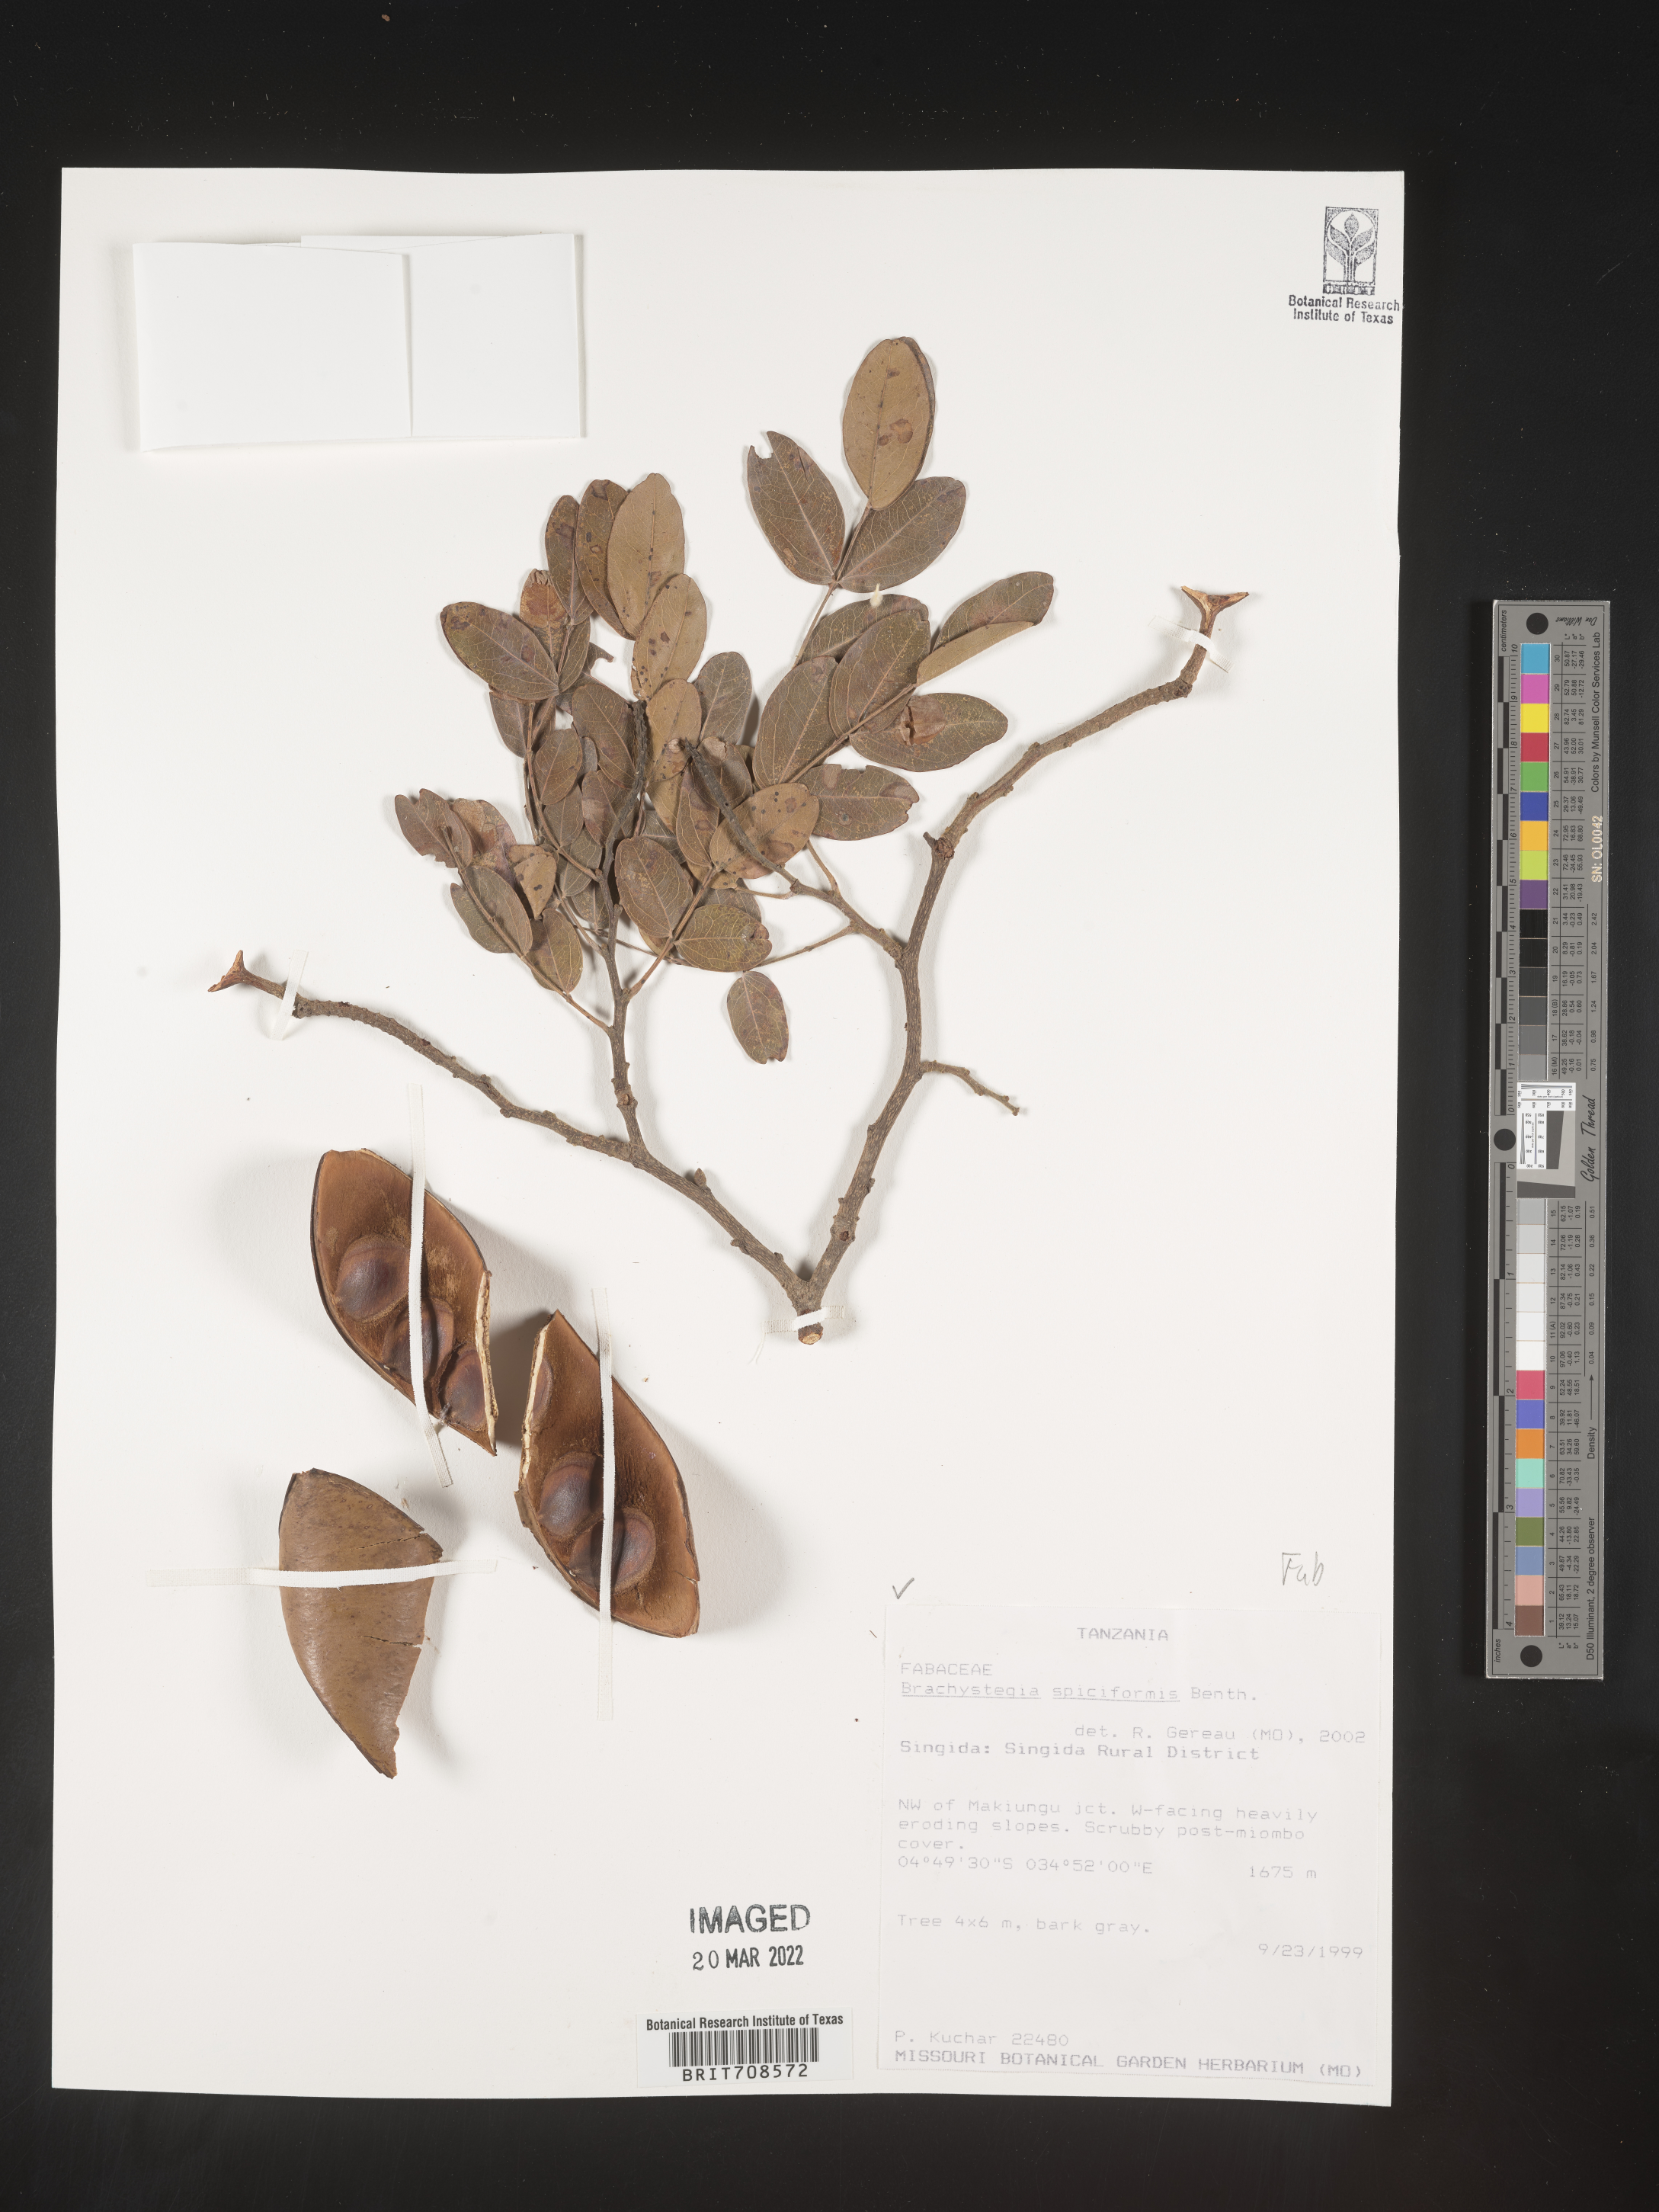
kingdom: Plantae
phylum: Tracheophyta
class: Magnoliopsida
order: Fabales
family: Fabaceae
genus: Brachystegia
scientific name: Brachystegia
